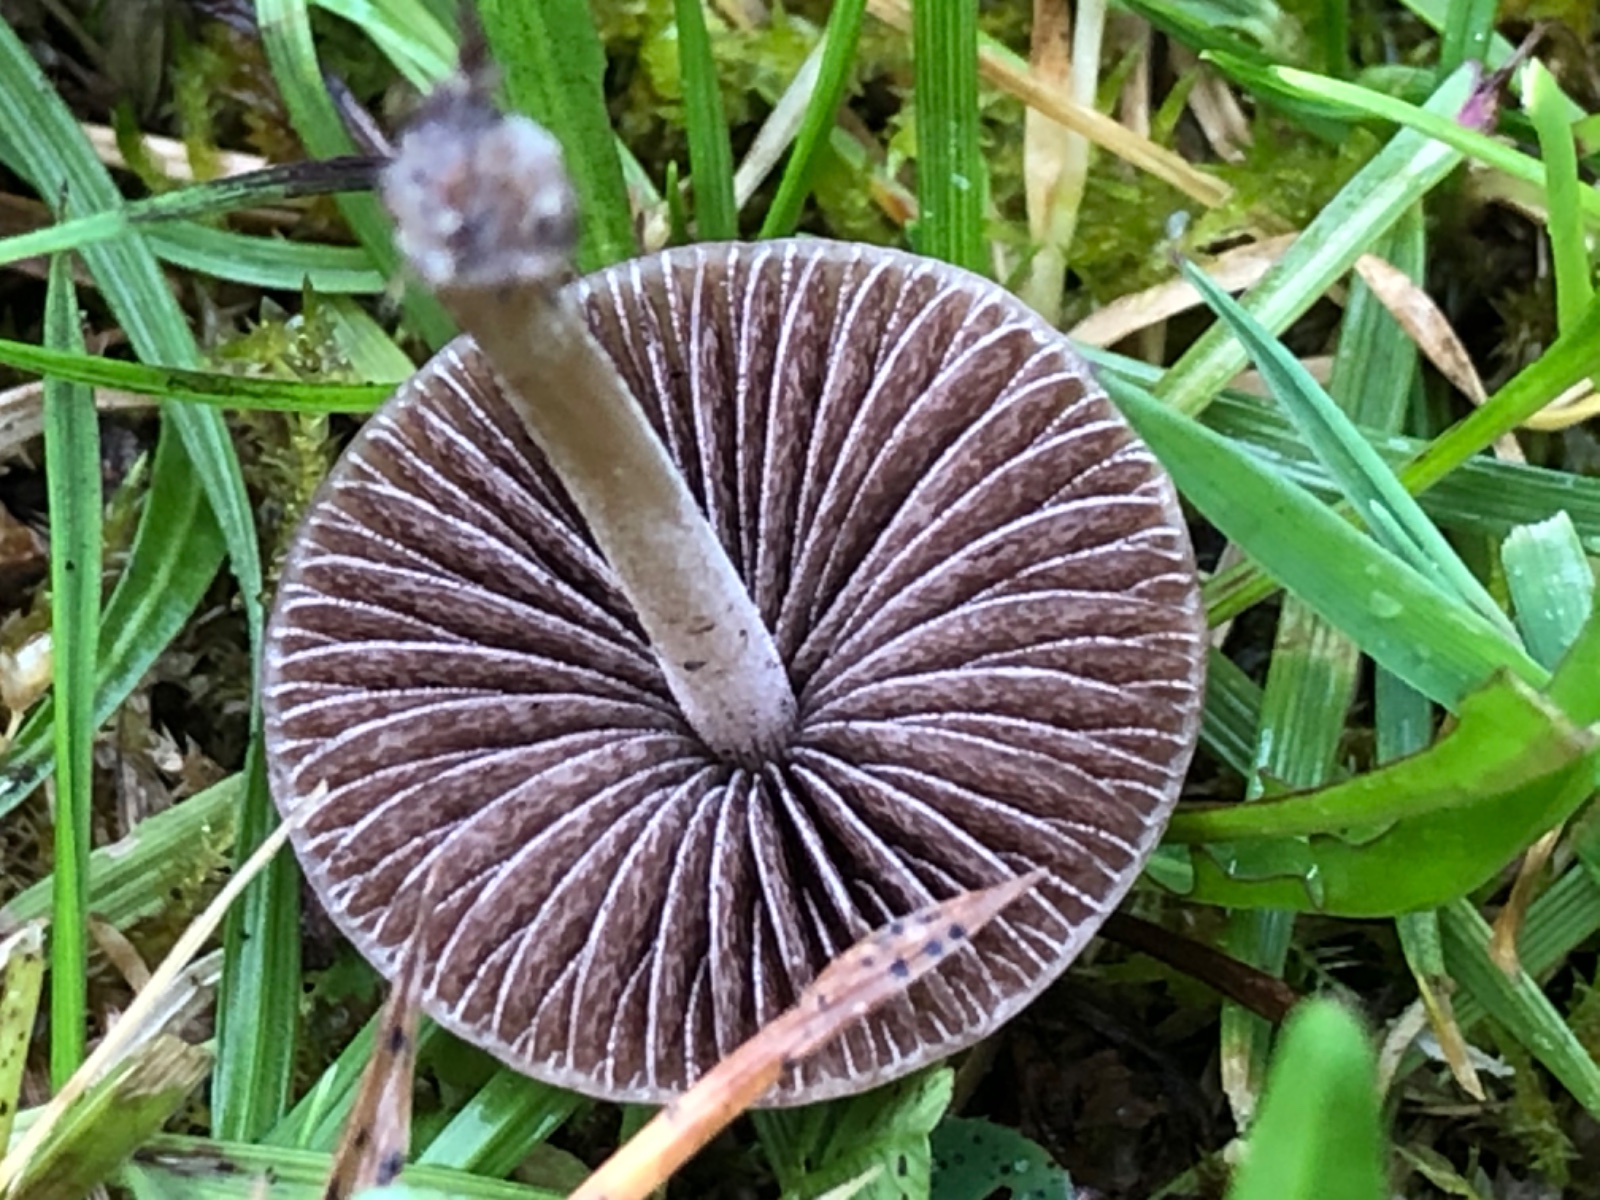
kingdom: Fungi
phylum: Basidiomycota
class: Agaricomycetes
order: Agaricales
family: Bolbitiaceae
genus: Panaeolina
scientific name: Panaeolina foenisecii
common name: høslætsvamp
